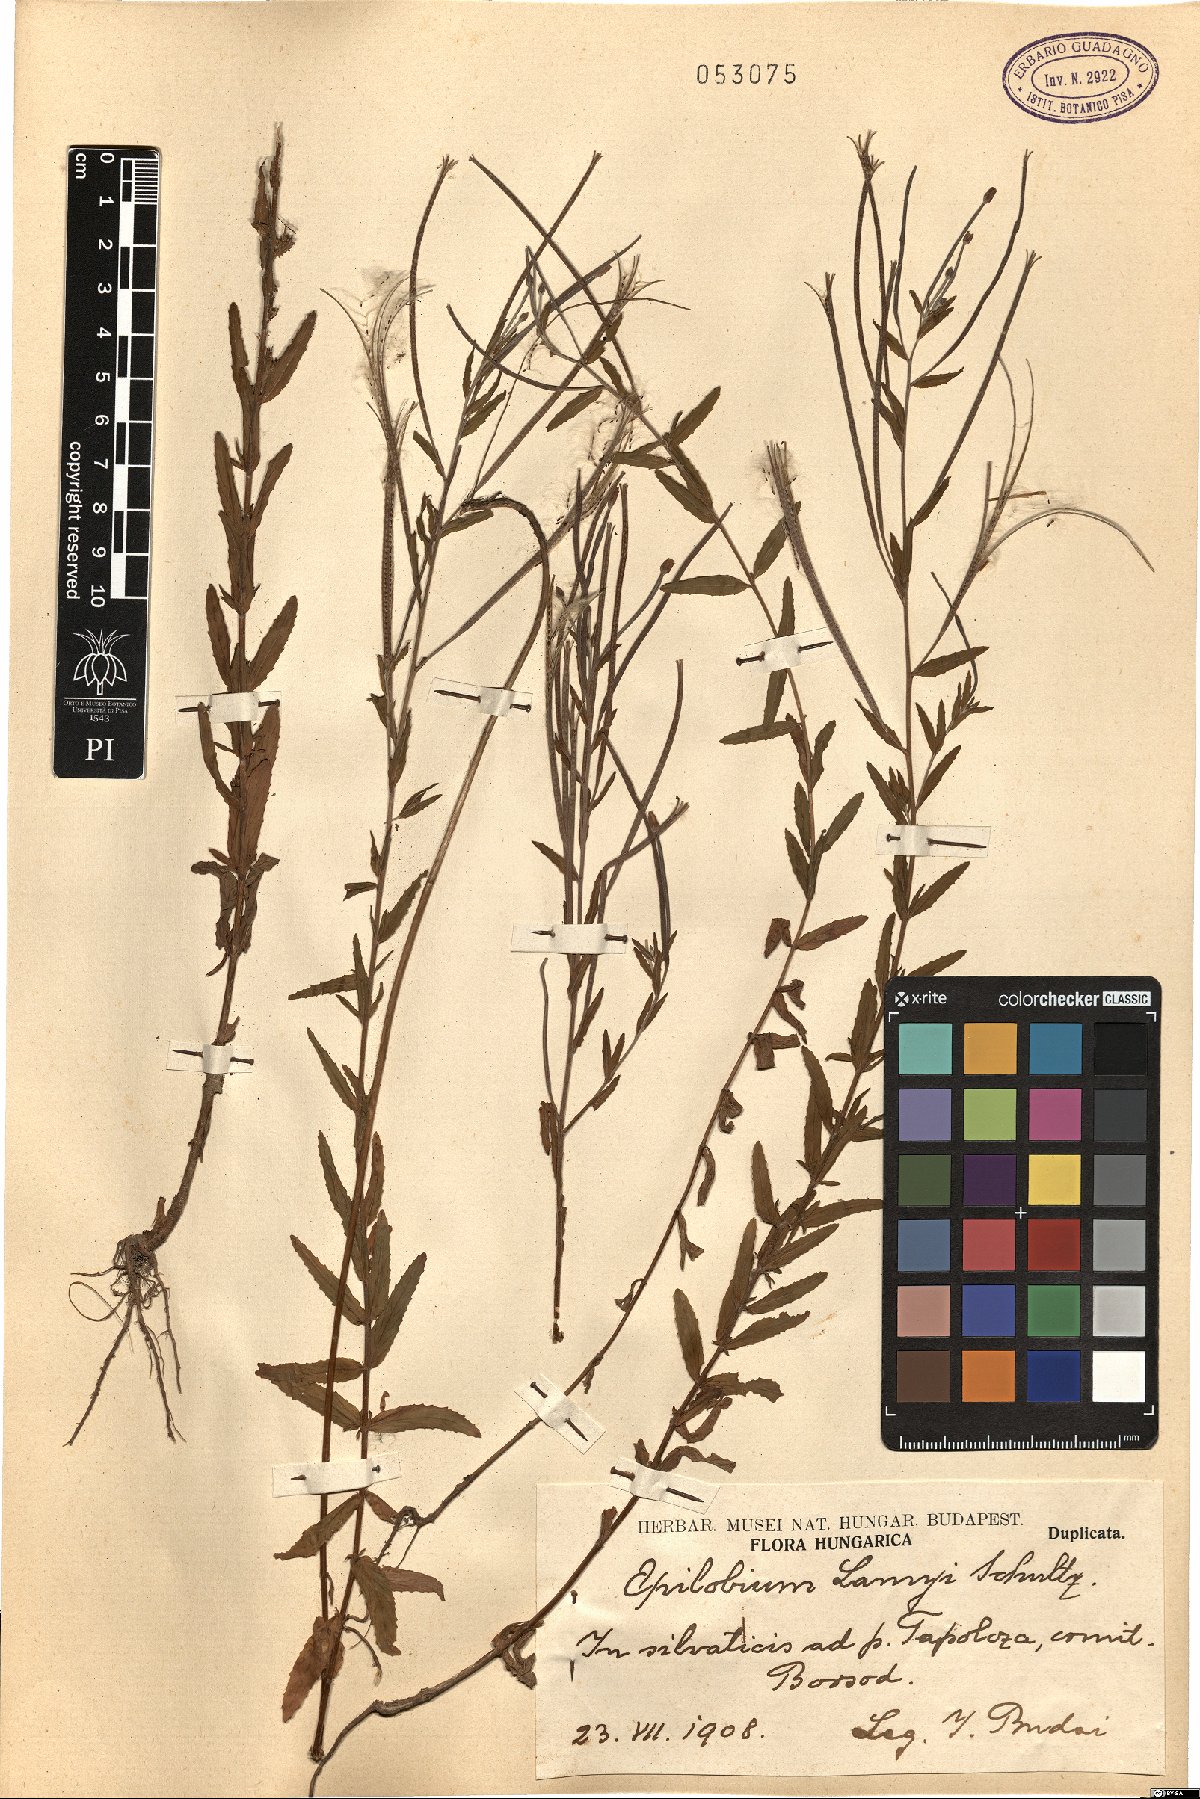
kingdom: Plantae
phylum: Tracheophyta
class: Magnoliopsida
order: Myrtales
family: Onagraceae
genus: Epilobium
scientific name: Epilobium lamyi
